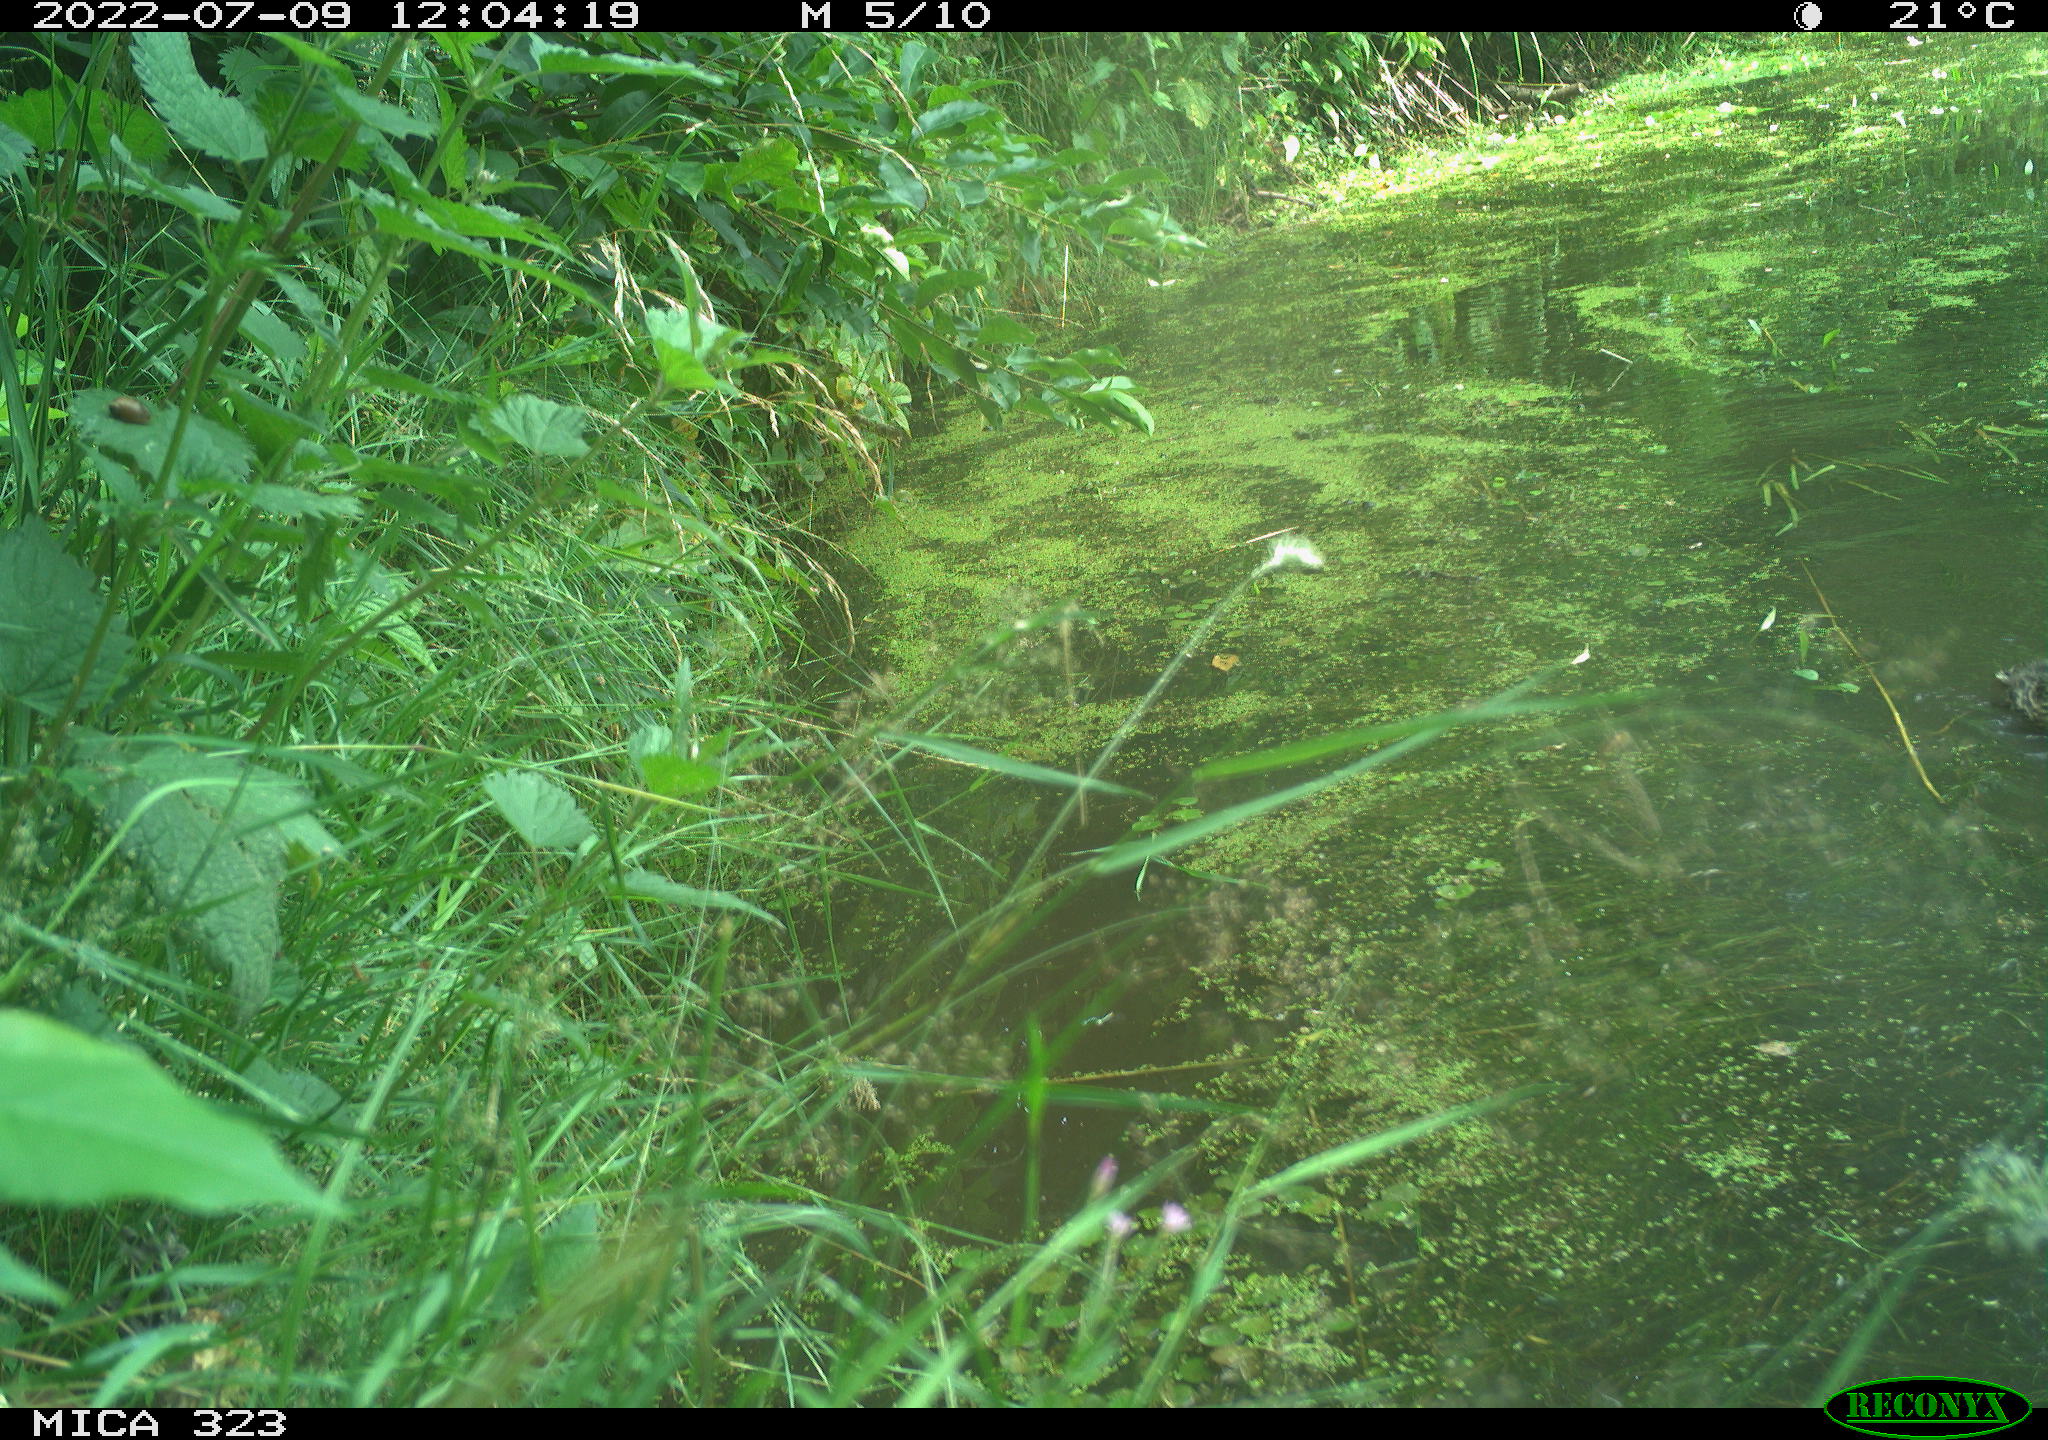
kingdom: Animalia
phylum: Chordata
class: Aves
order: Anseriformes
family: Anatidae
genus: Anas
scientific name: Anas platyrhynchos
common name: Mallard
